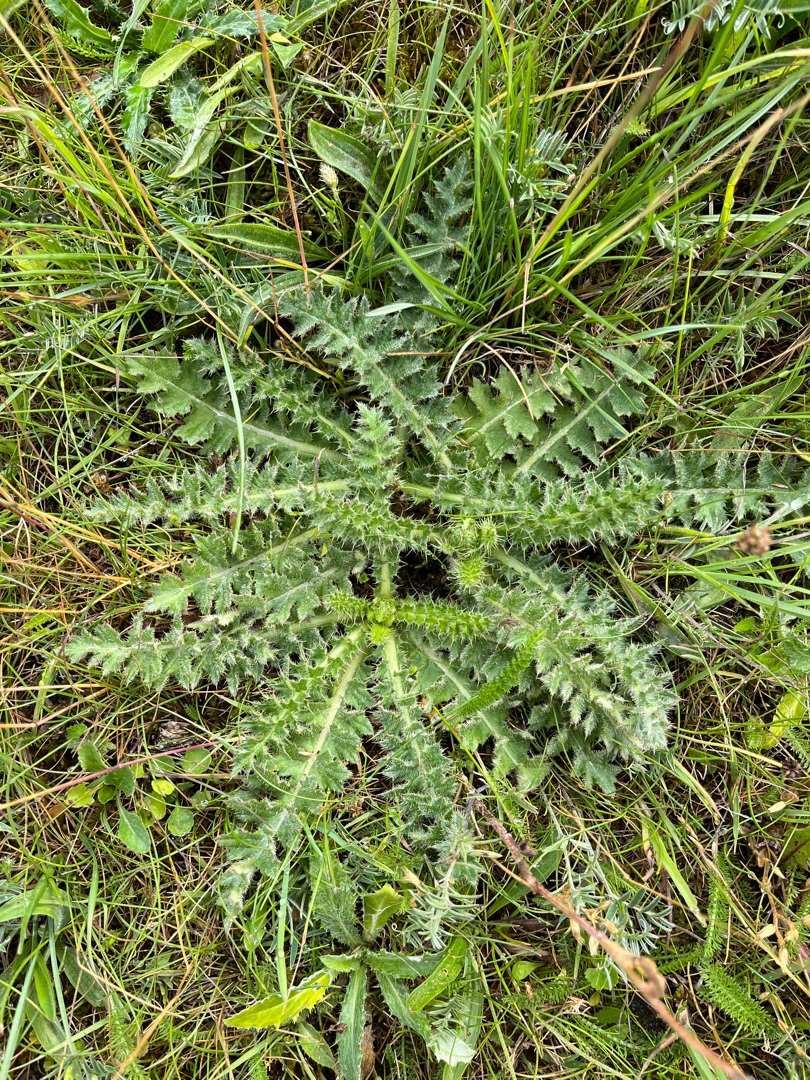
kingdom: Plantae
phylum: Tracheophyta
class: Magnoliopsida
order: Asterales
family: Asteraceae
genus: Cirsium
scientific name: Cirsium acaule
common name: Lav tidsel
